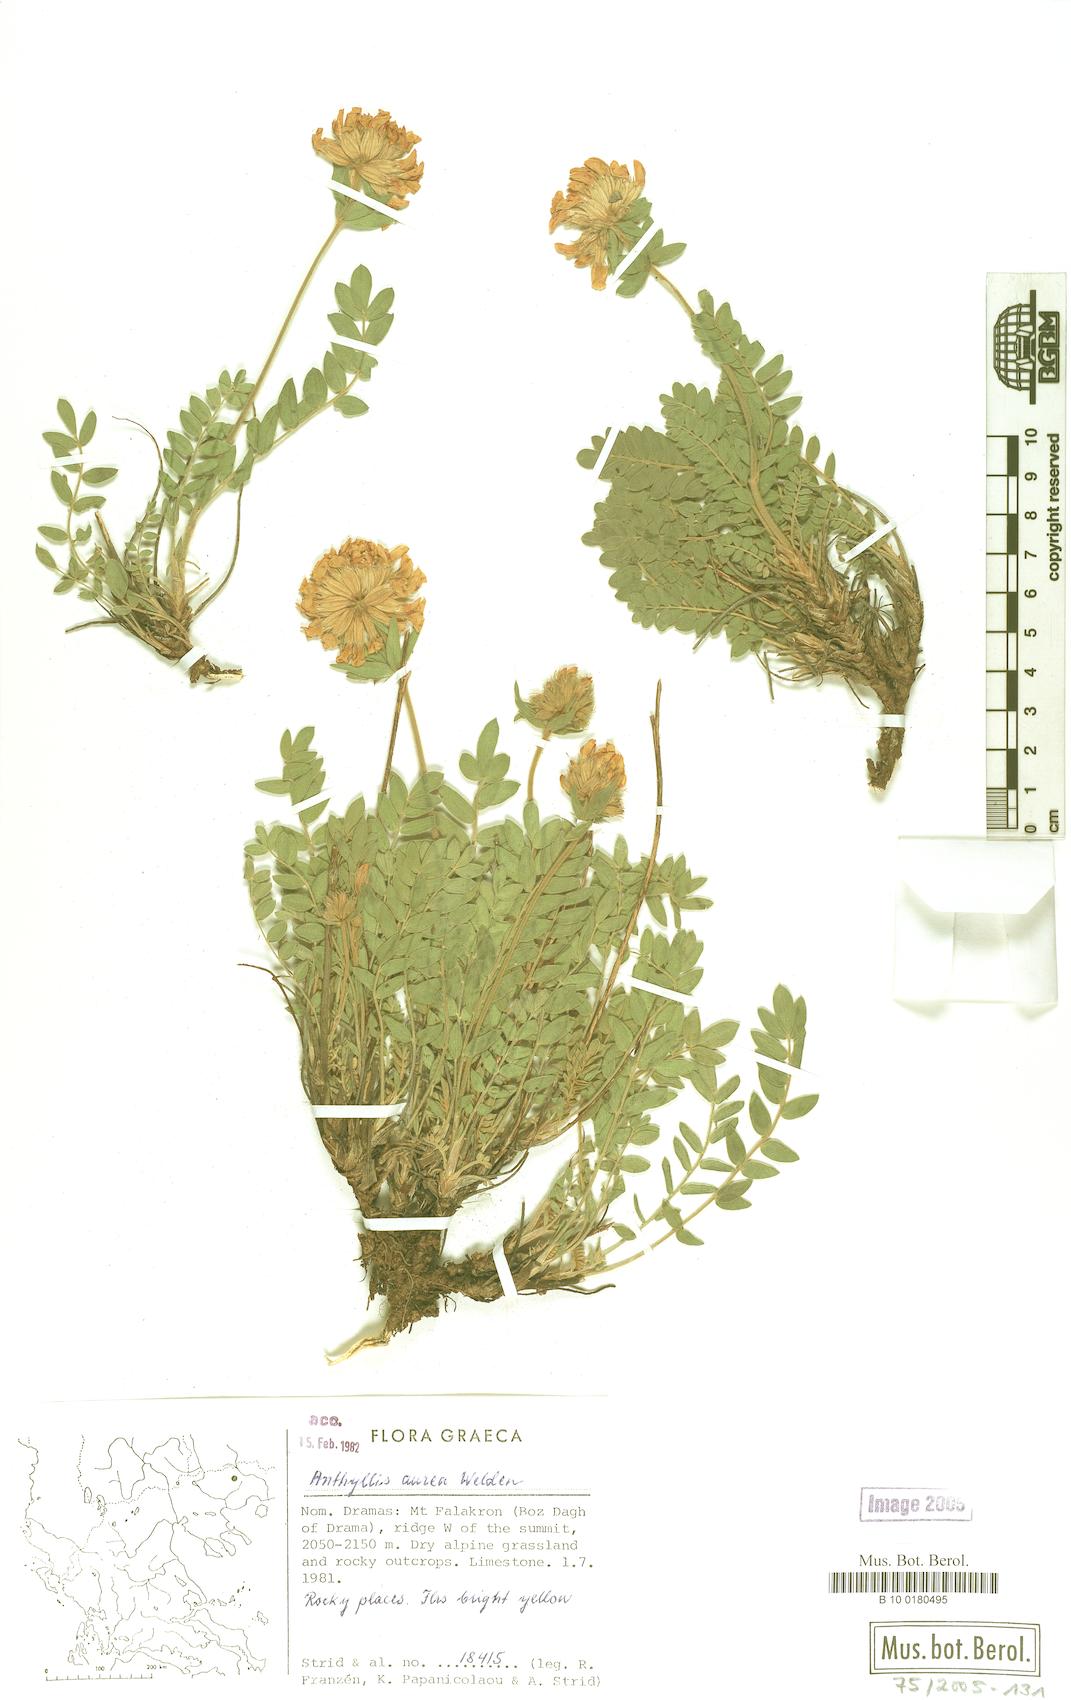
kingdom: Plantae
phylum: Tracheophyta
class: Magnoliopsida
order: Fabales
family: Fabaceae
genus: Anthyllis
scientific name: Anthyllis aurea
